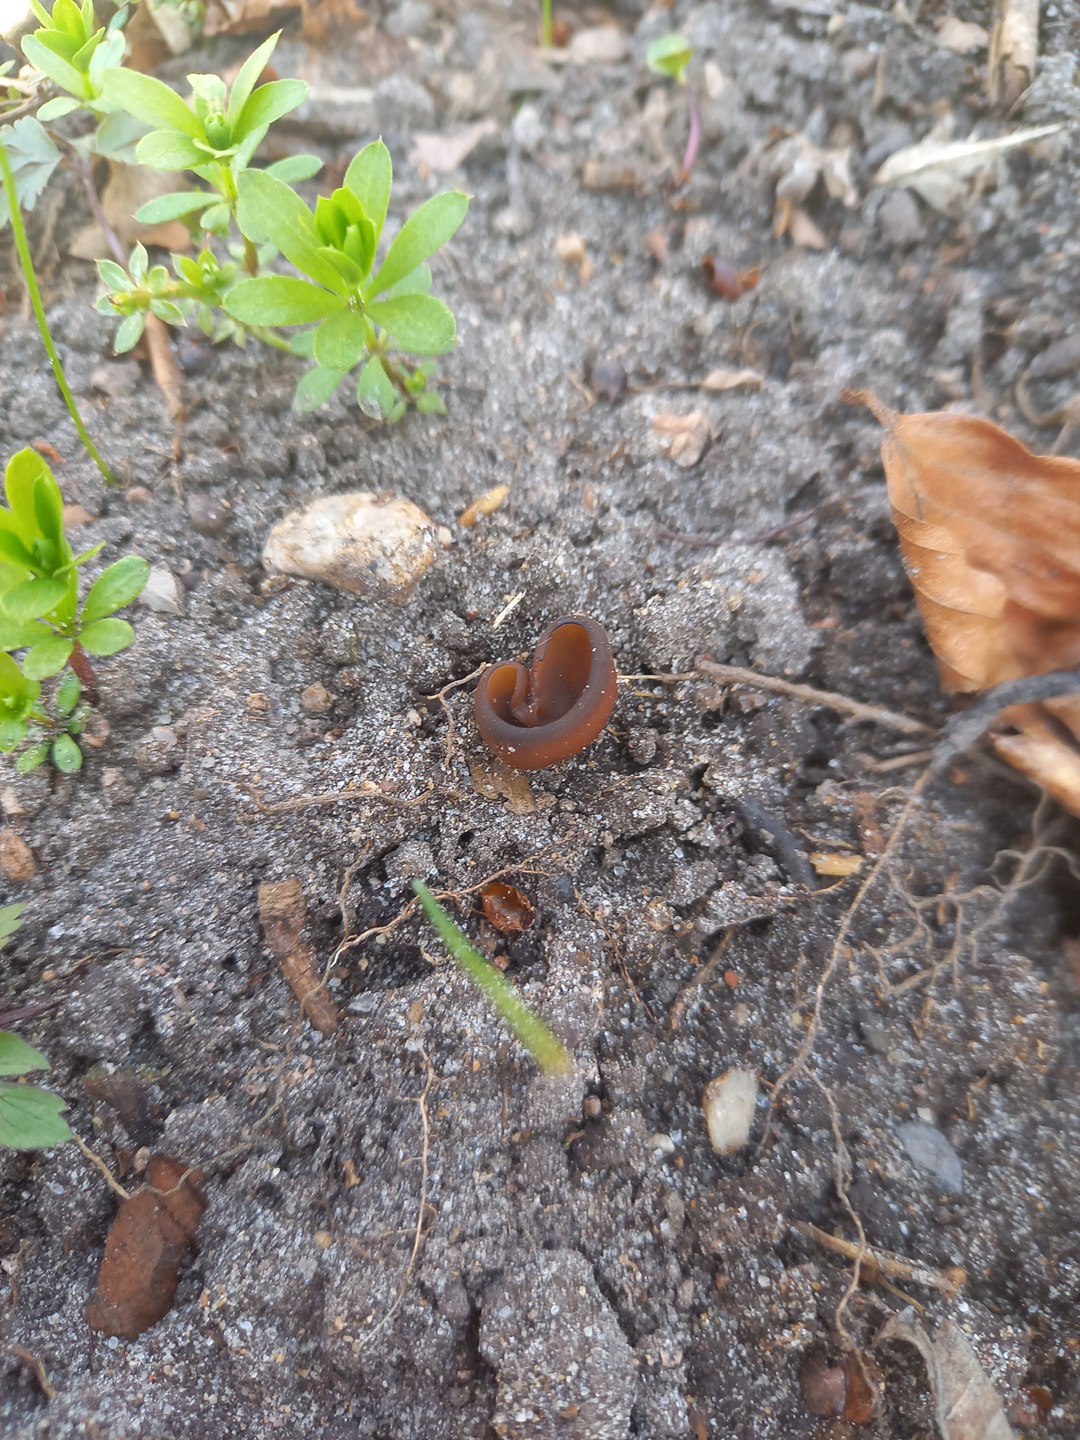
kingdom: Fungi
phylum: Ascomycota
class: Leotiomycetes
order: Helotiales
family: Sclerotiniaceae
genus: Dumontinia
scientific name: Dumontinia tuberosa
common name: anemone-knoldskive
